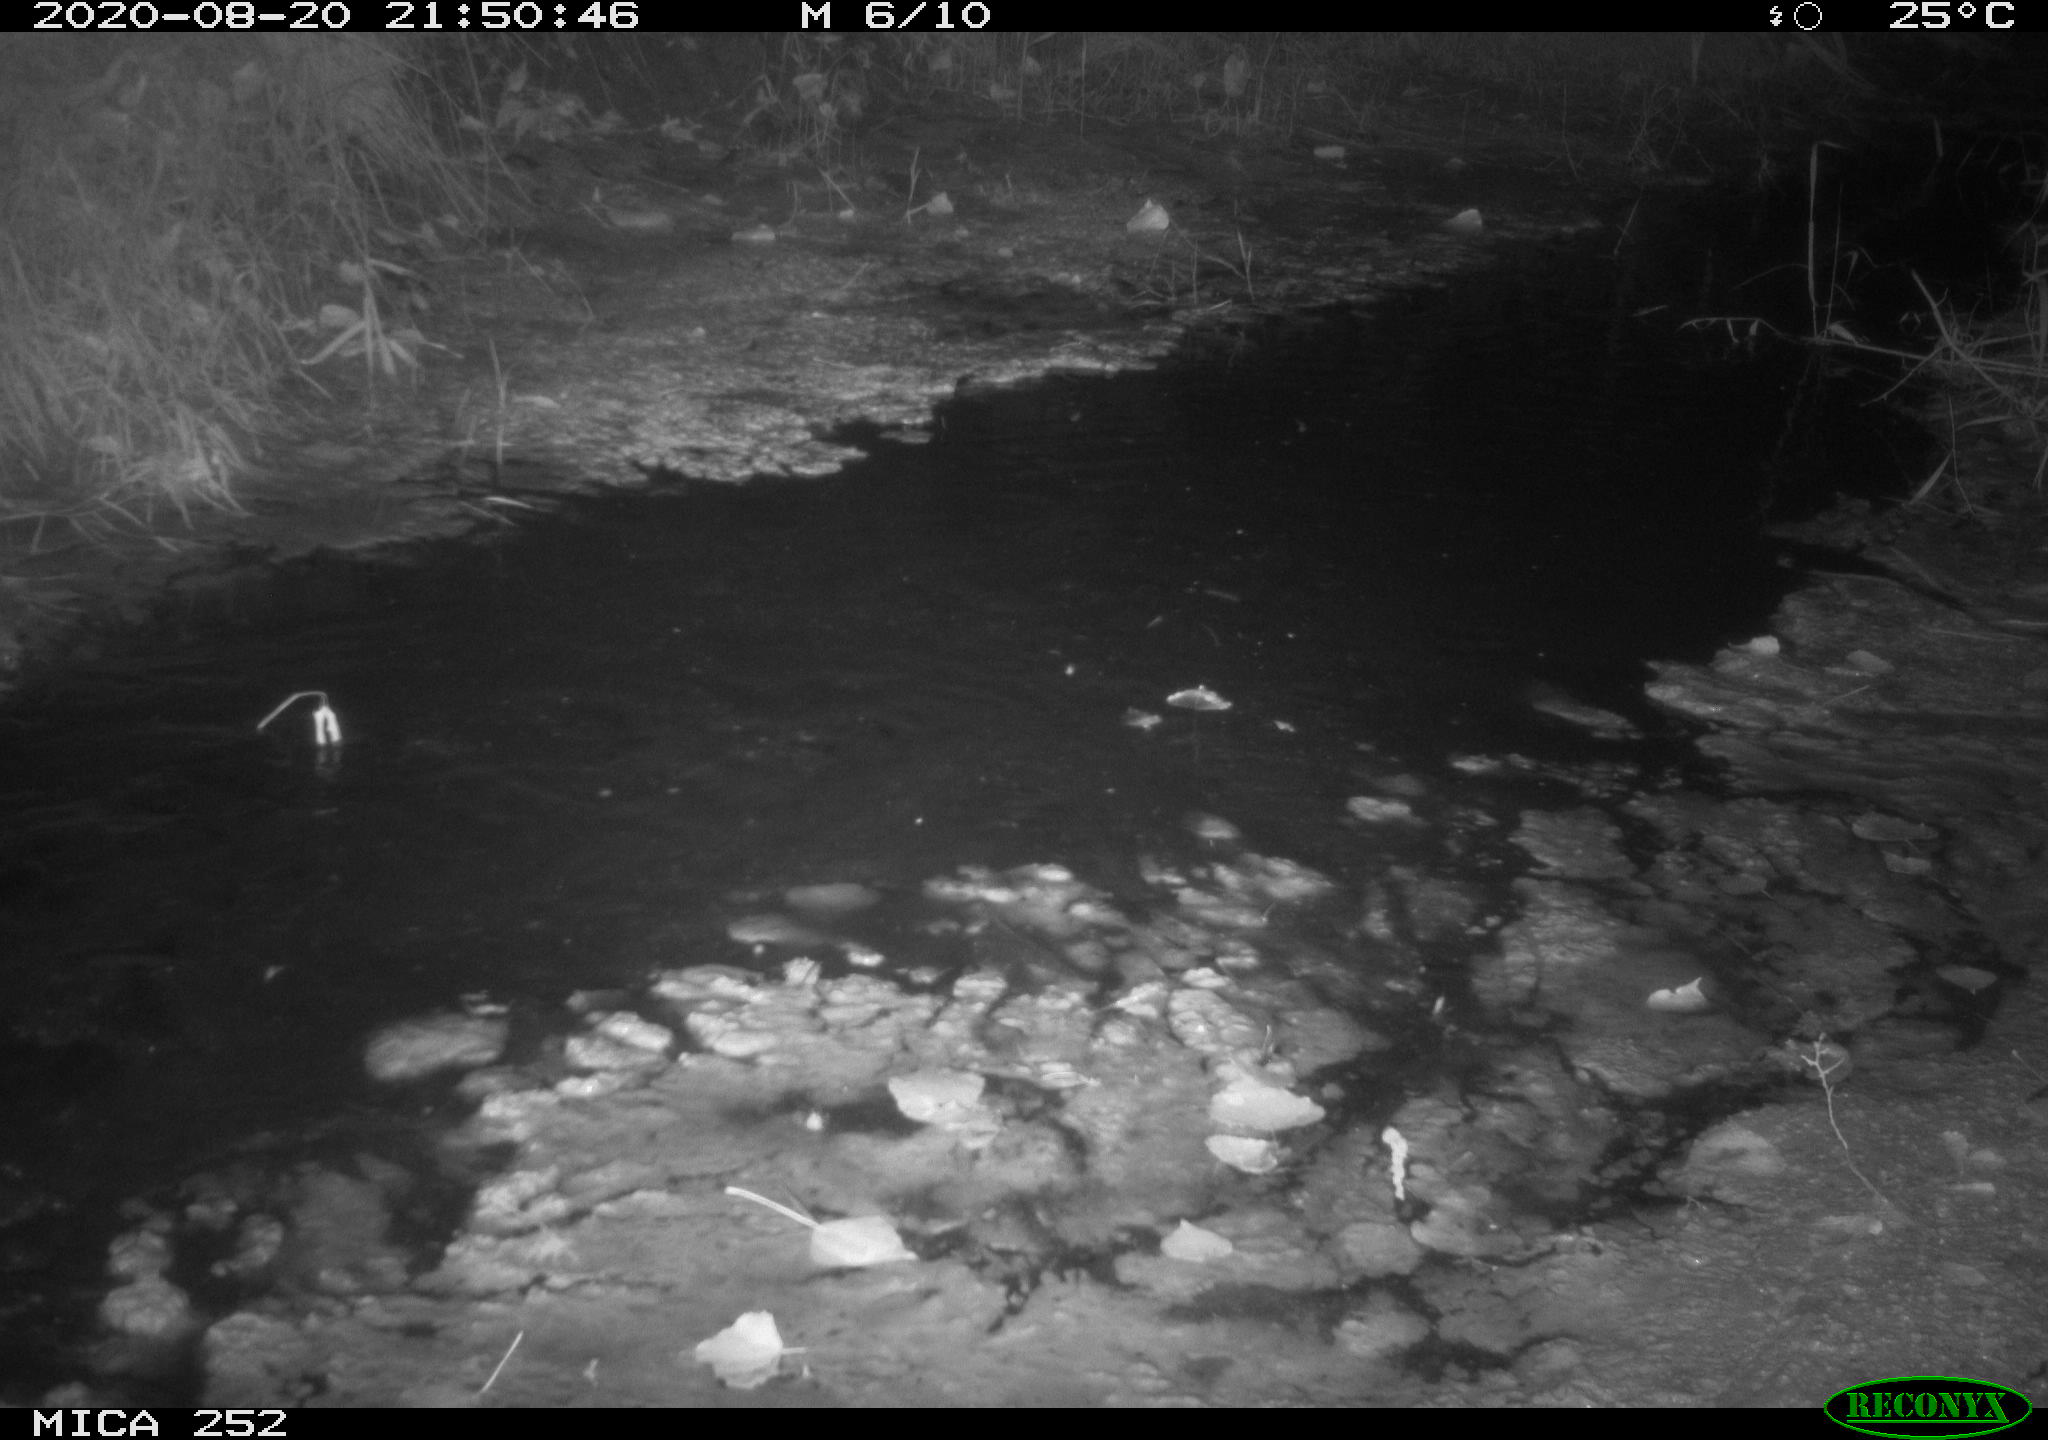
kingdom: Animalia
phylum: Chordata
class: Mammalia
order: Rodentia
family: Castoridae
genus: Castor
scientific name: Castor fiber
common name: Eurasian beaver
